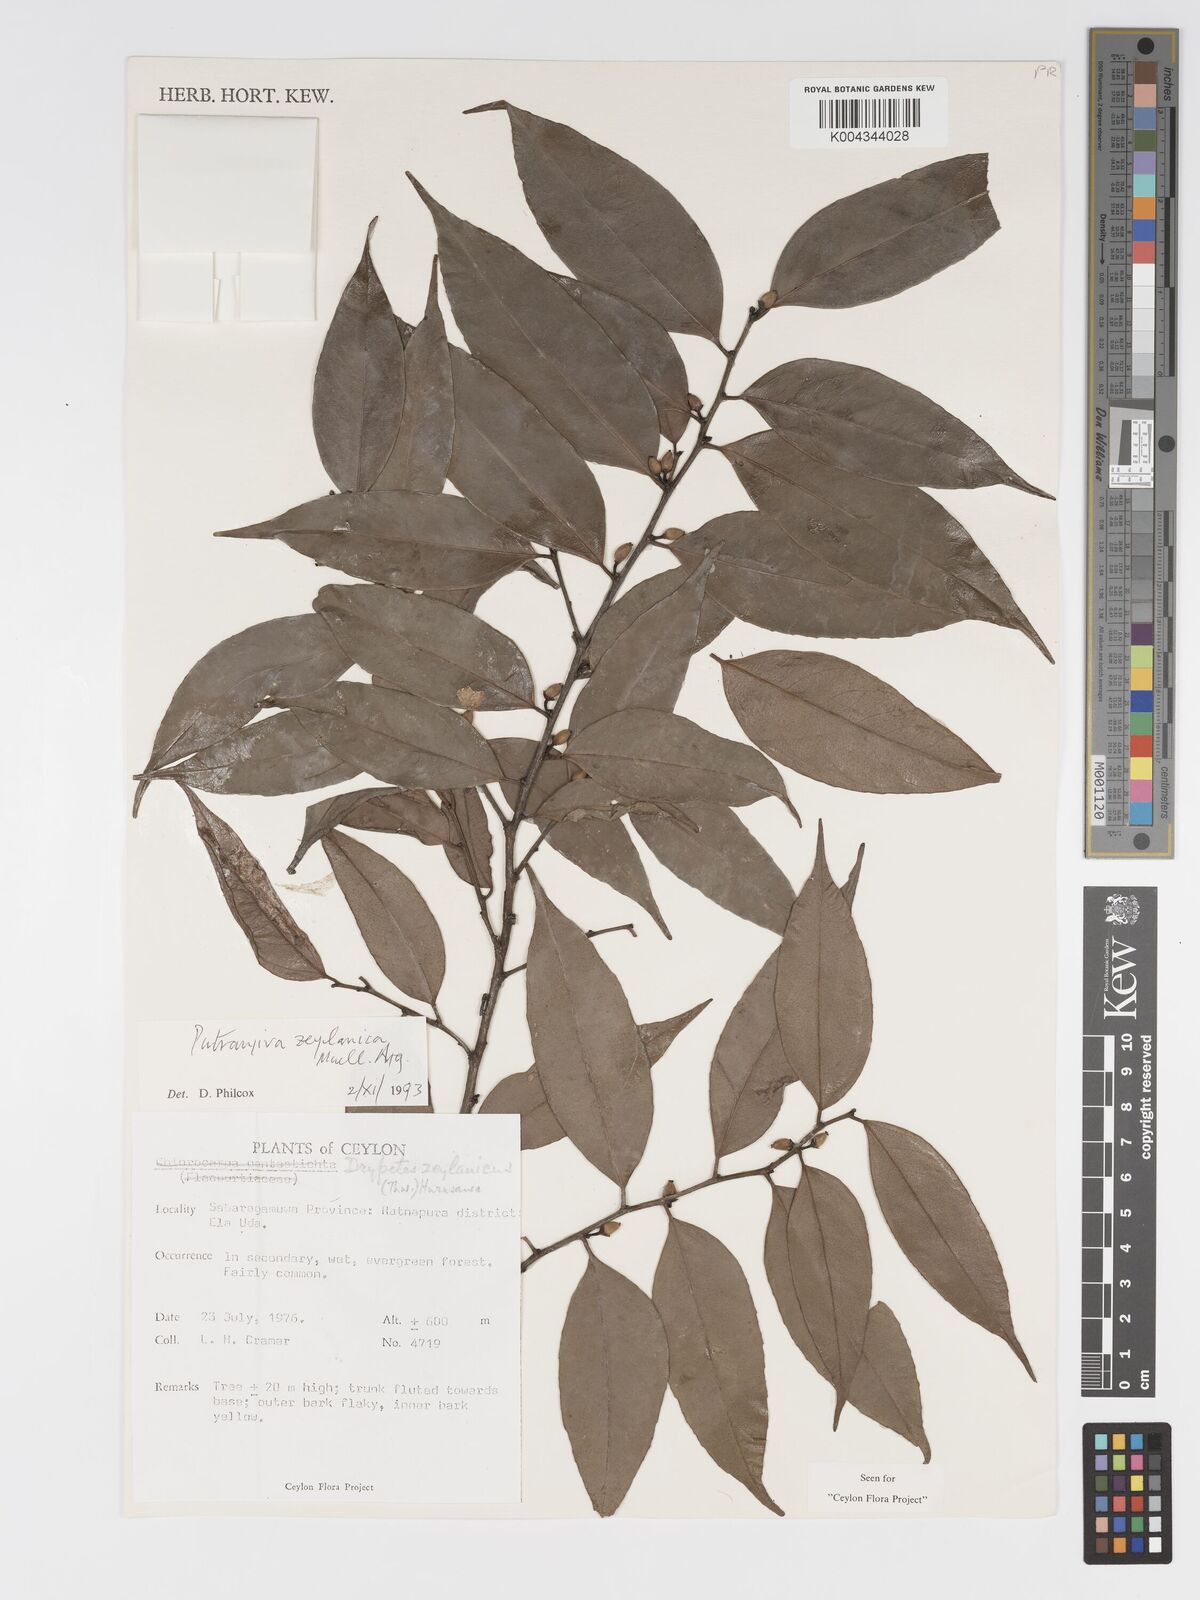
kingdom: Plantae
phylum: Tracheophyta
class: Magnoliopsida
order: Malpighiales
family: Putranjivaceae
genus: Putranjiva
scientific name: Putranjiva zeylanica
